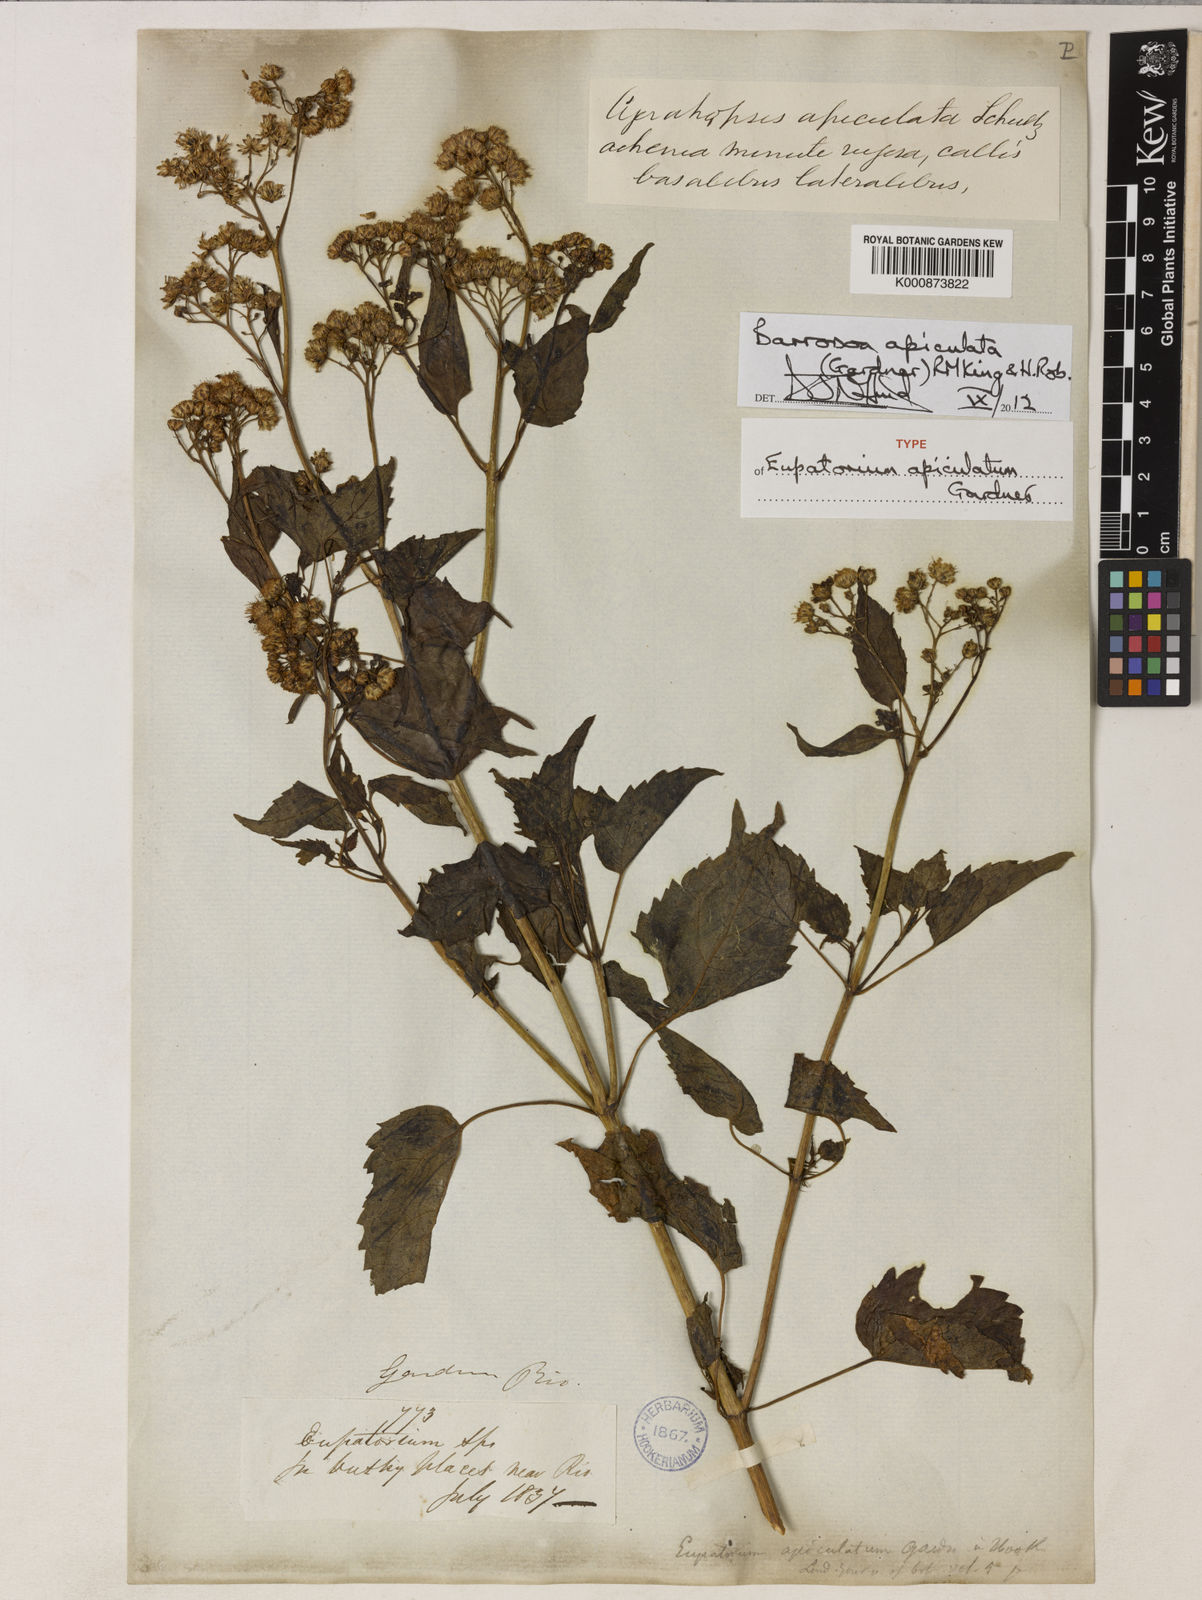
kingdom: Plantae
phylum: Tracheophyta
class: Magnoliopsida
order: Asterales
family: Asteraceae
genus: Barrosoa
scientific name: Barrosoa apiculata
